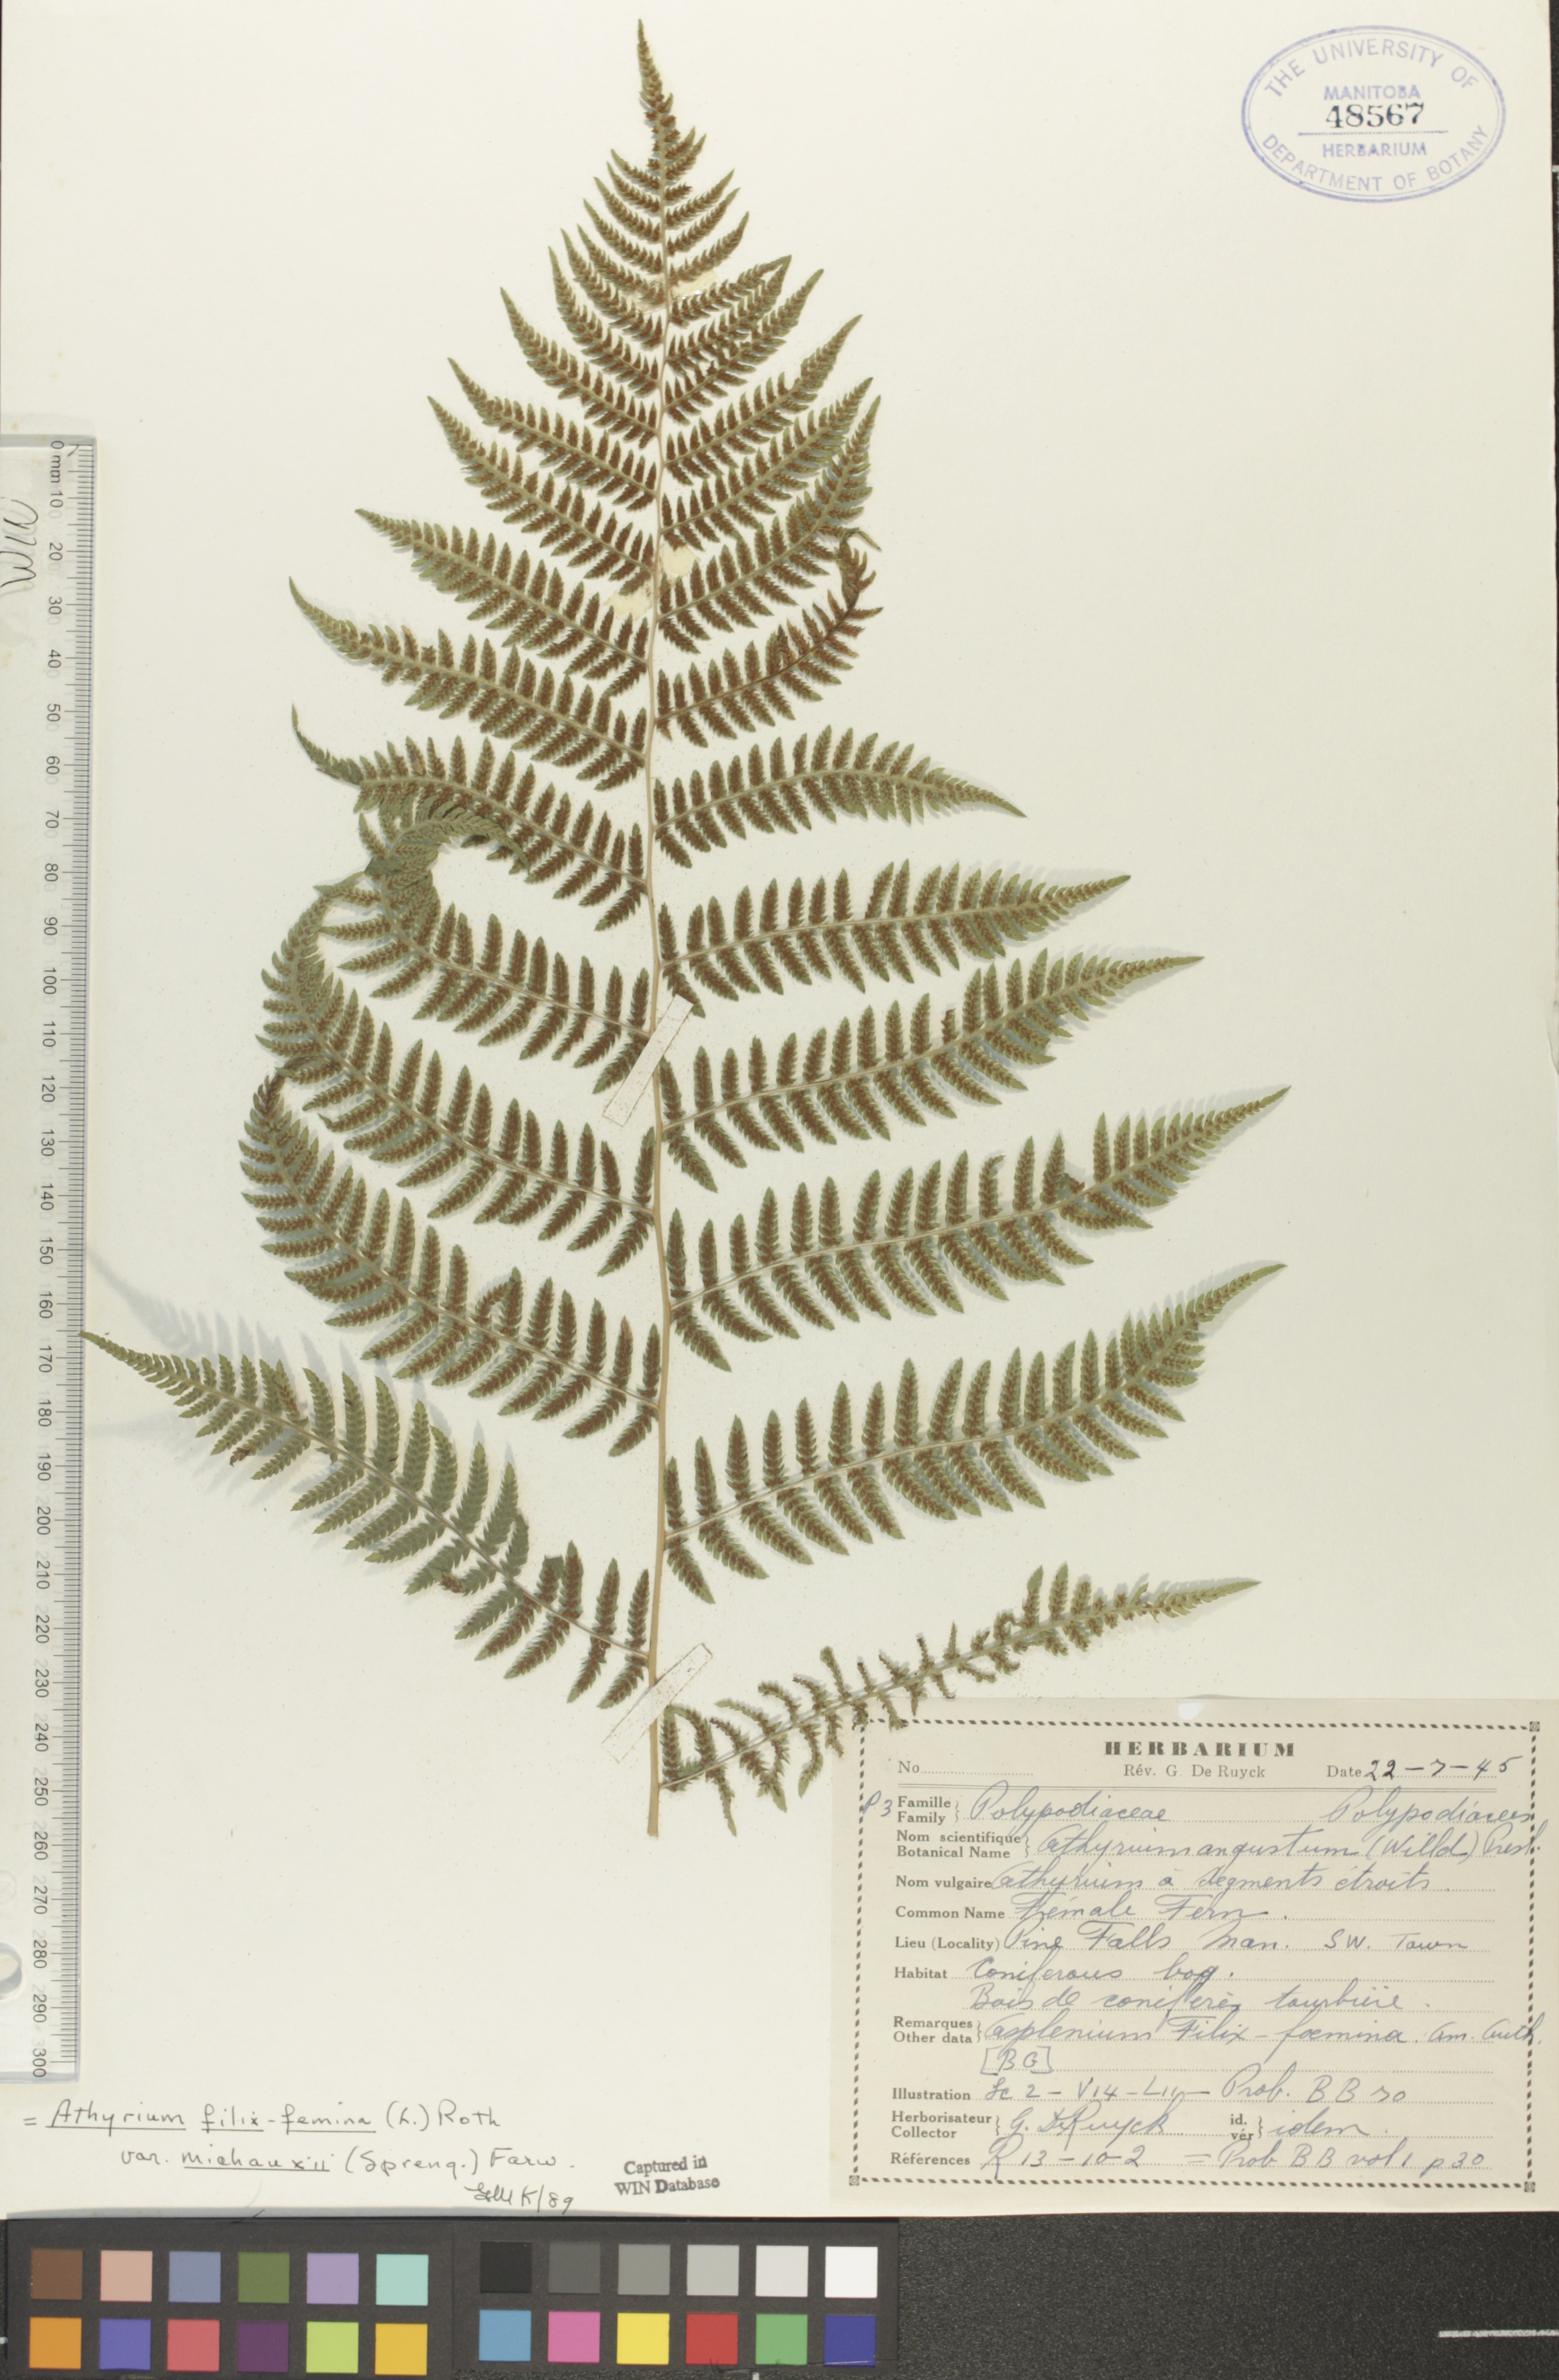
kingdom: Plantae
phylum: Tracheophyta
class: Polypodiopsida
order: Polypodiales
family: Athyriaceae
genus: Athyrium
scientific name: Athyrium angustum
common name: Northern lady fern
